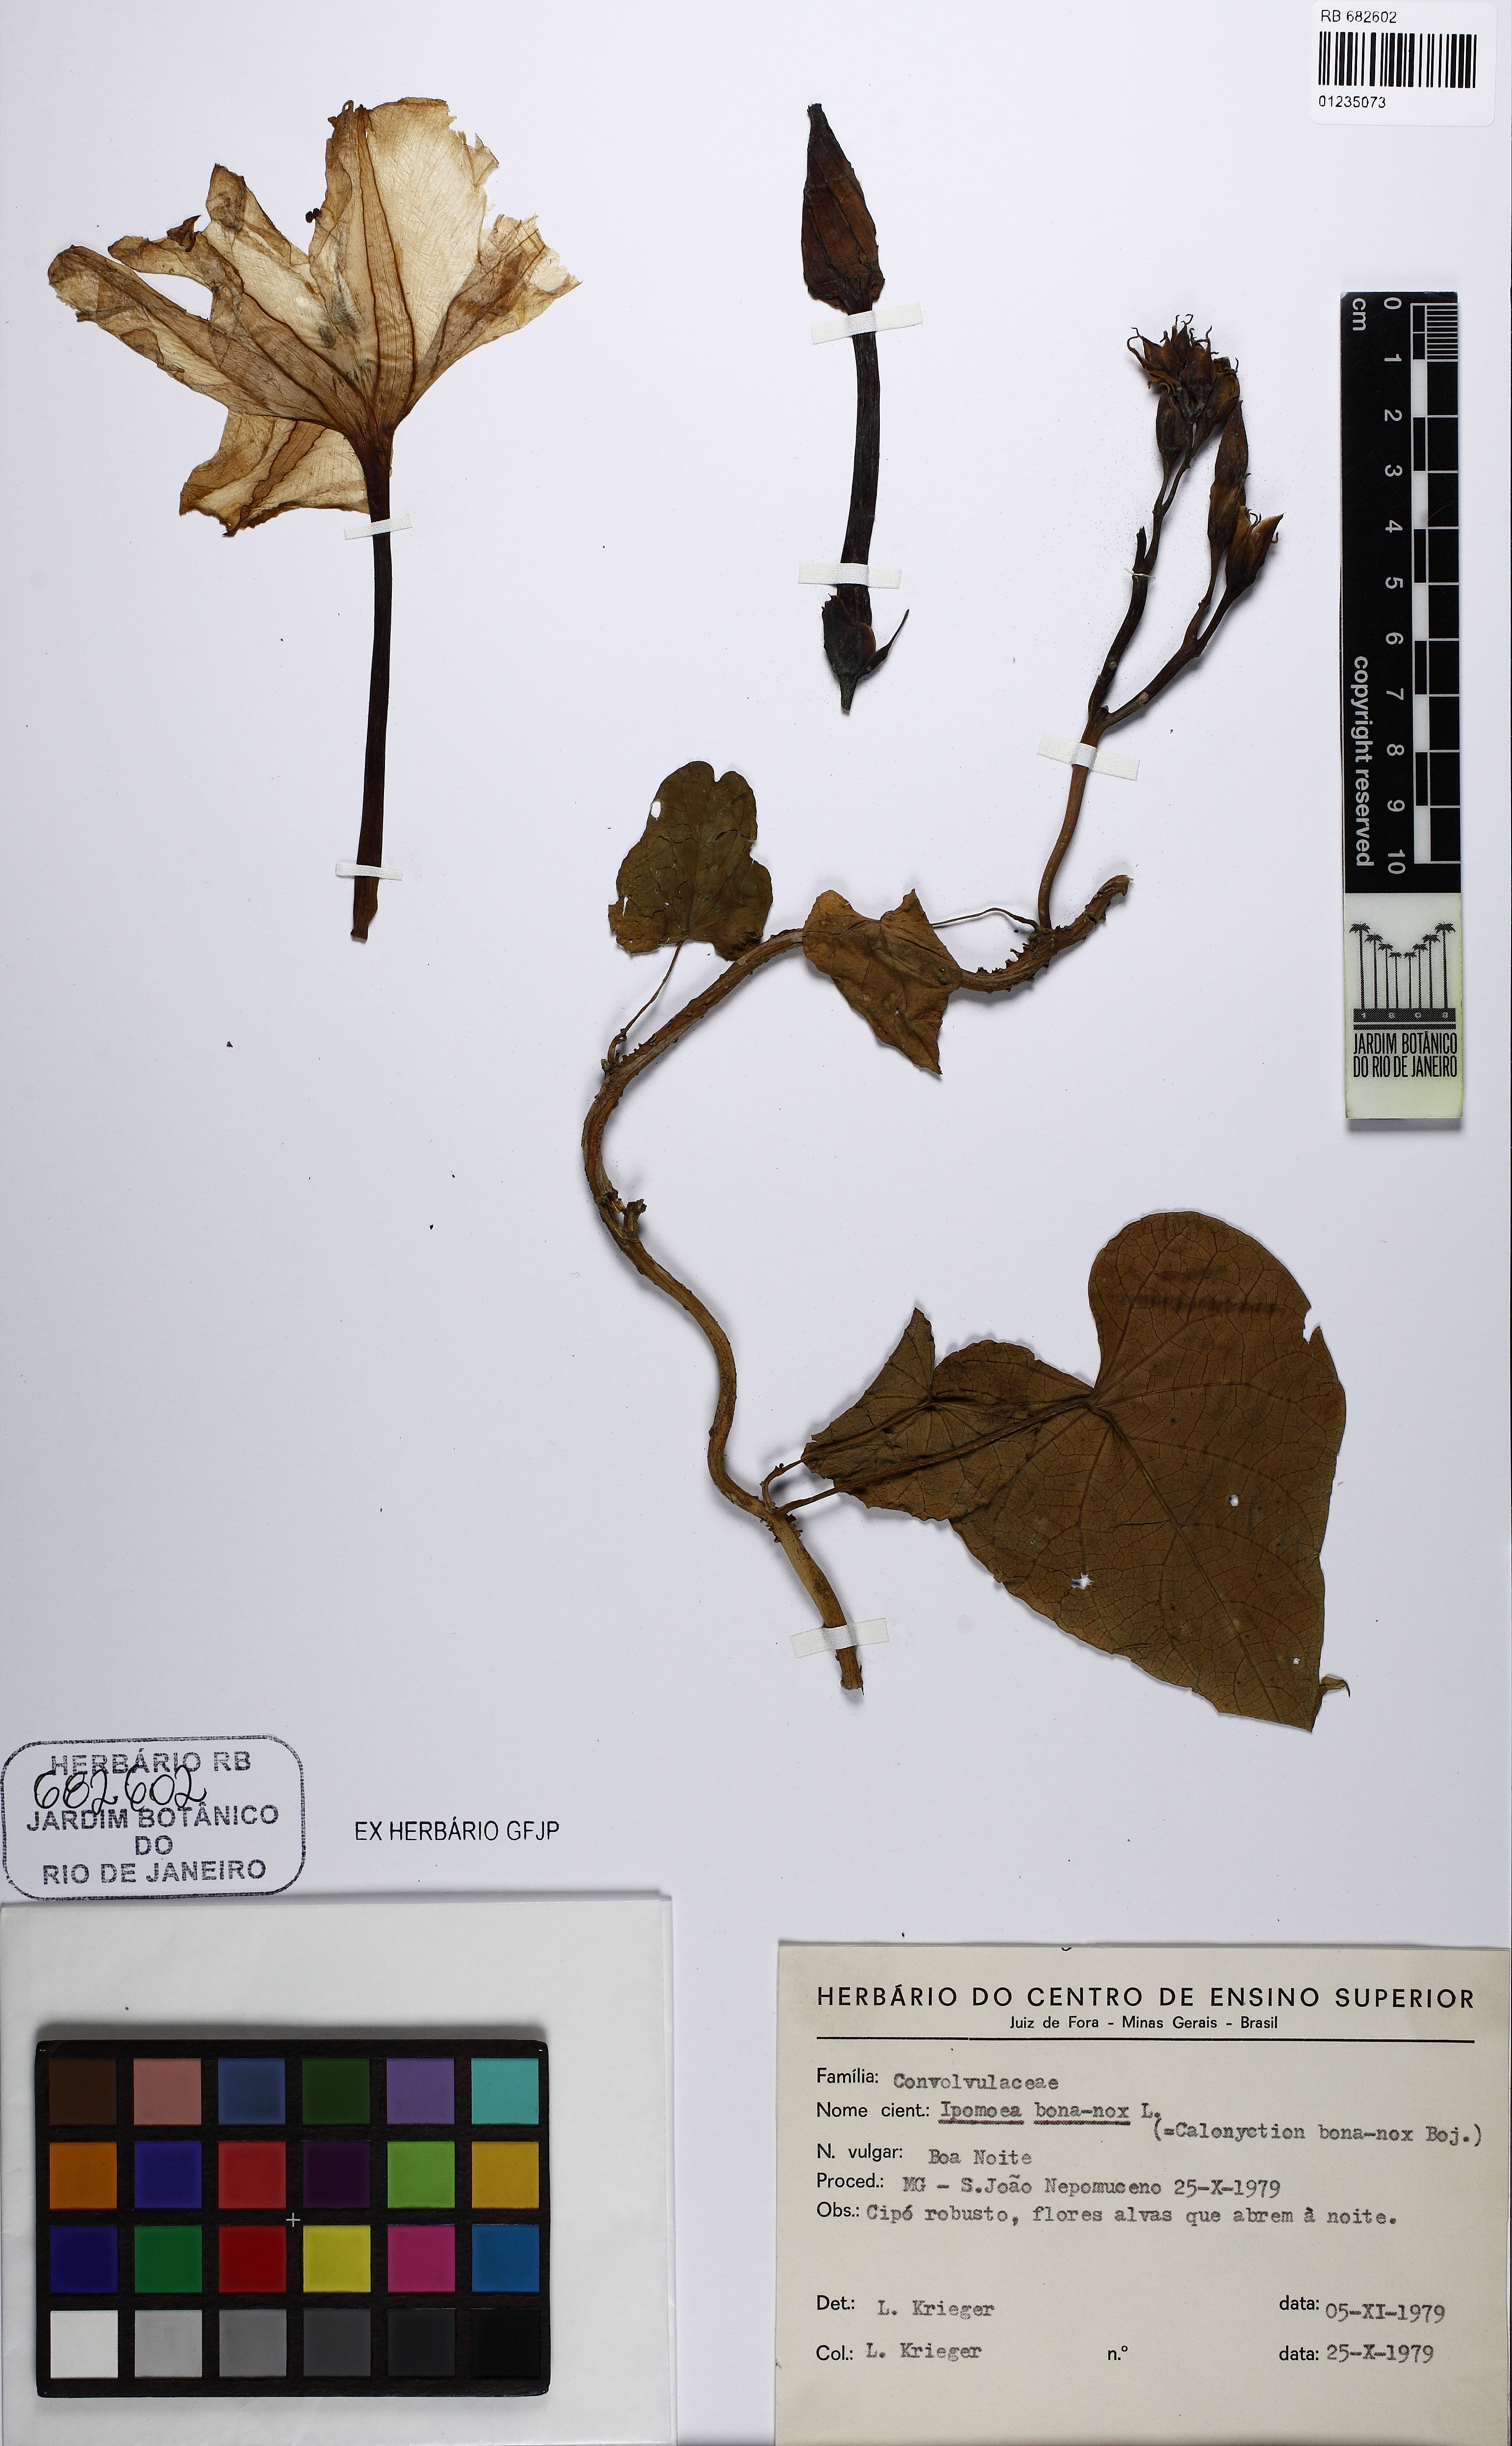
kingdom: Plantae
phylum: Tracheophyta
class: Magnoliopsida
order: Solanales
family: Convolvulaceae
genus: Ipomoea
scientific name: Ipomoea alba
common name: Moonflower
